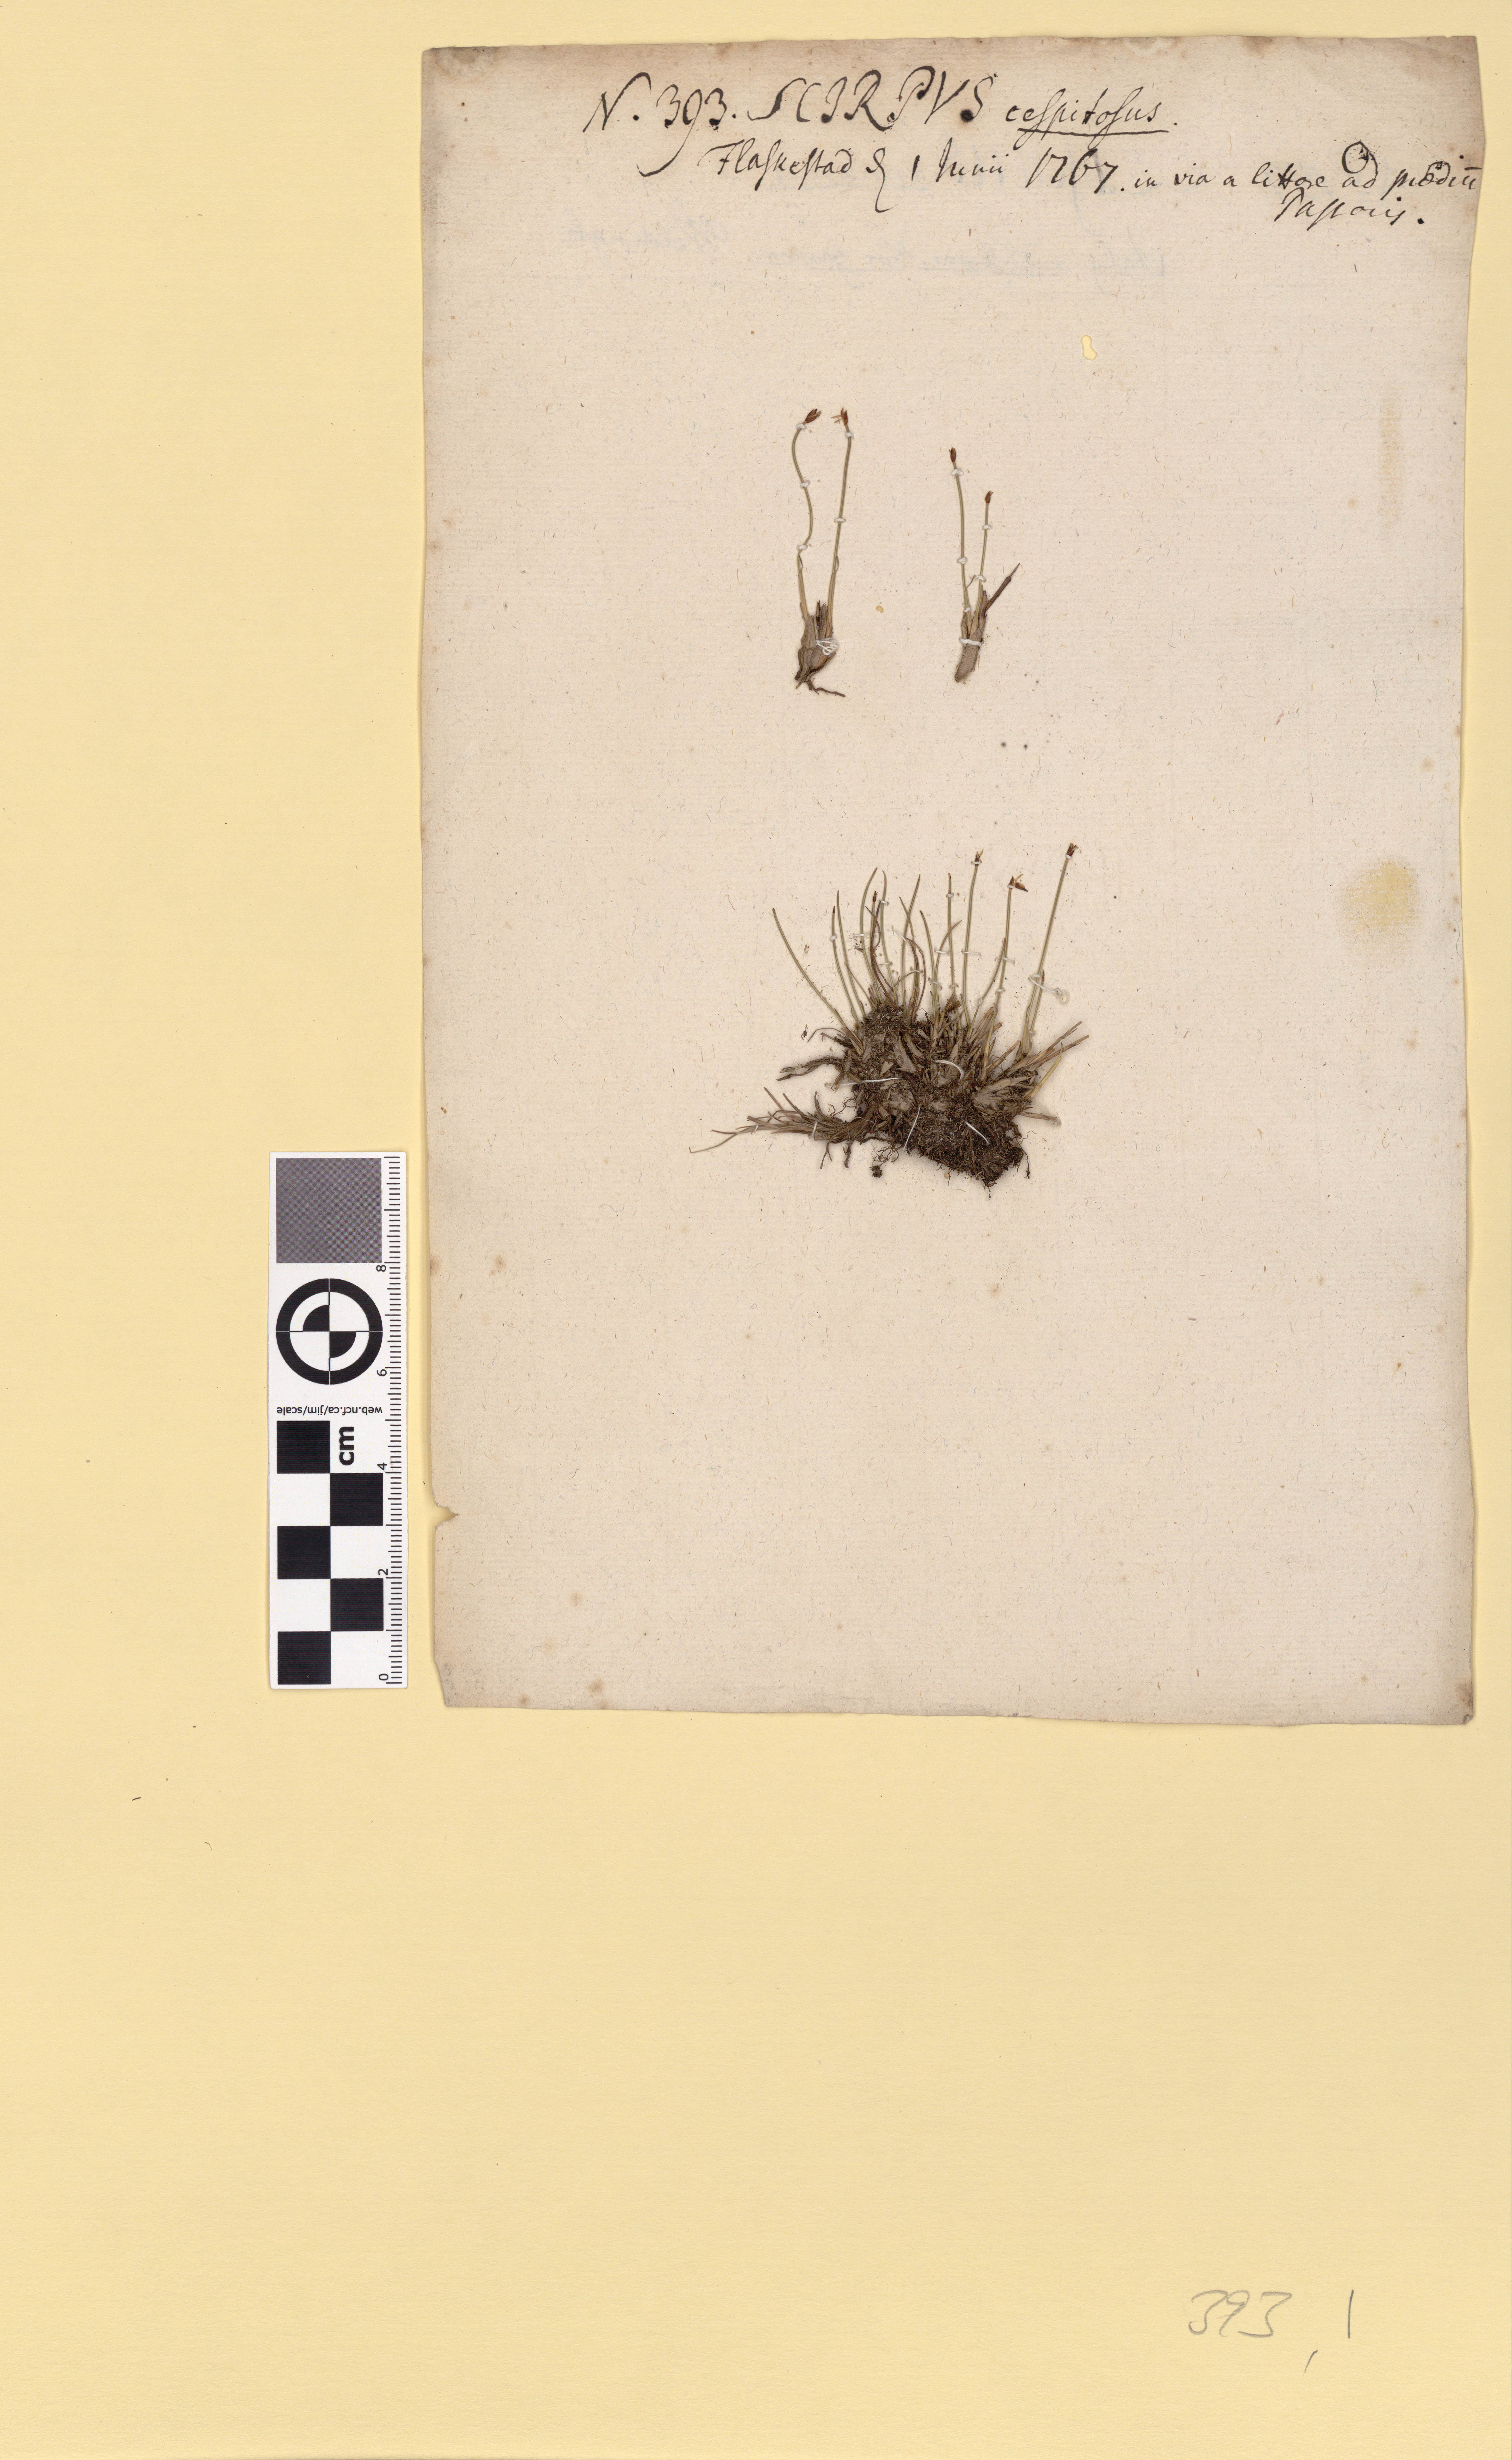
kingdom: Plantae
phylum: Tracheophyta
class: Liliopsida
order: Poales
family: Cyperaceae
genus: Trichophorum
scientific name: Trichophorum cespitosum
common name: Cespitose bulrush
